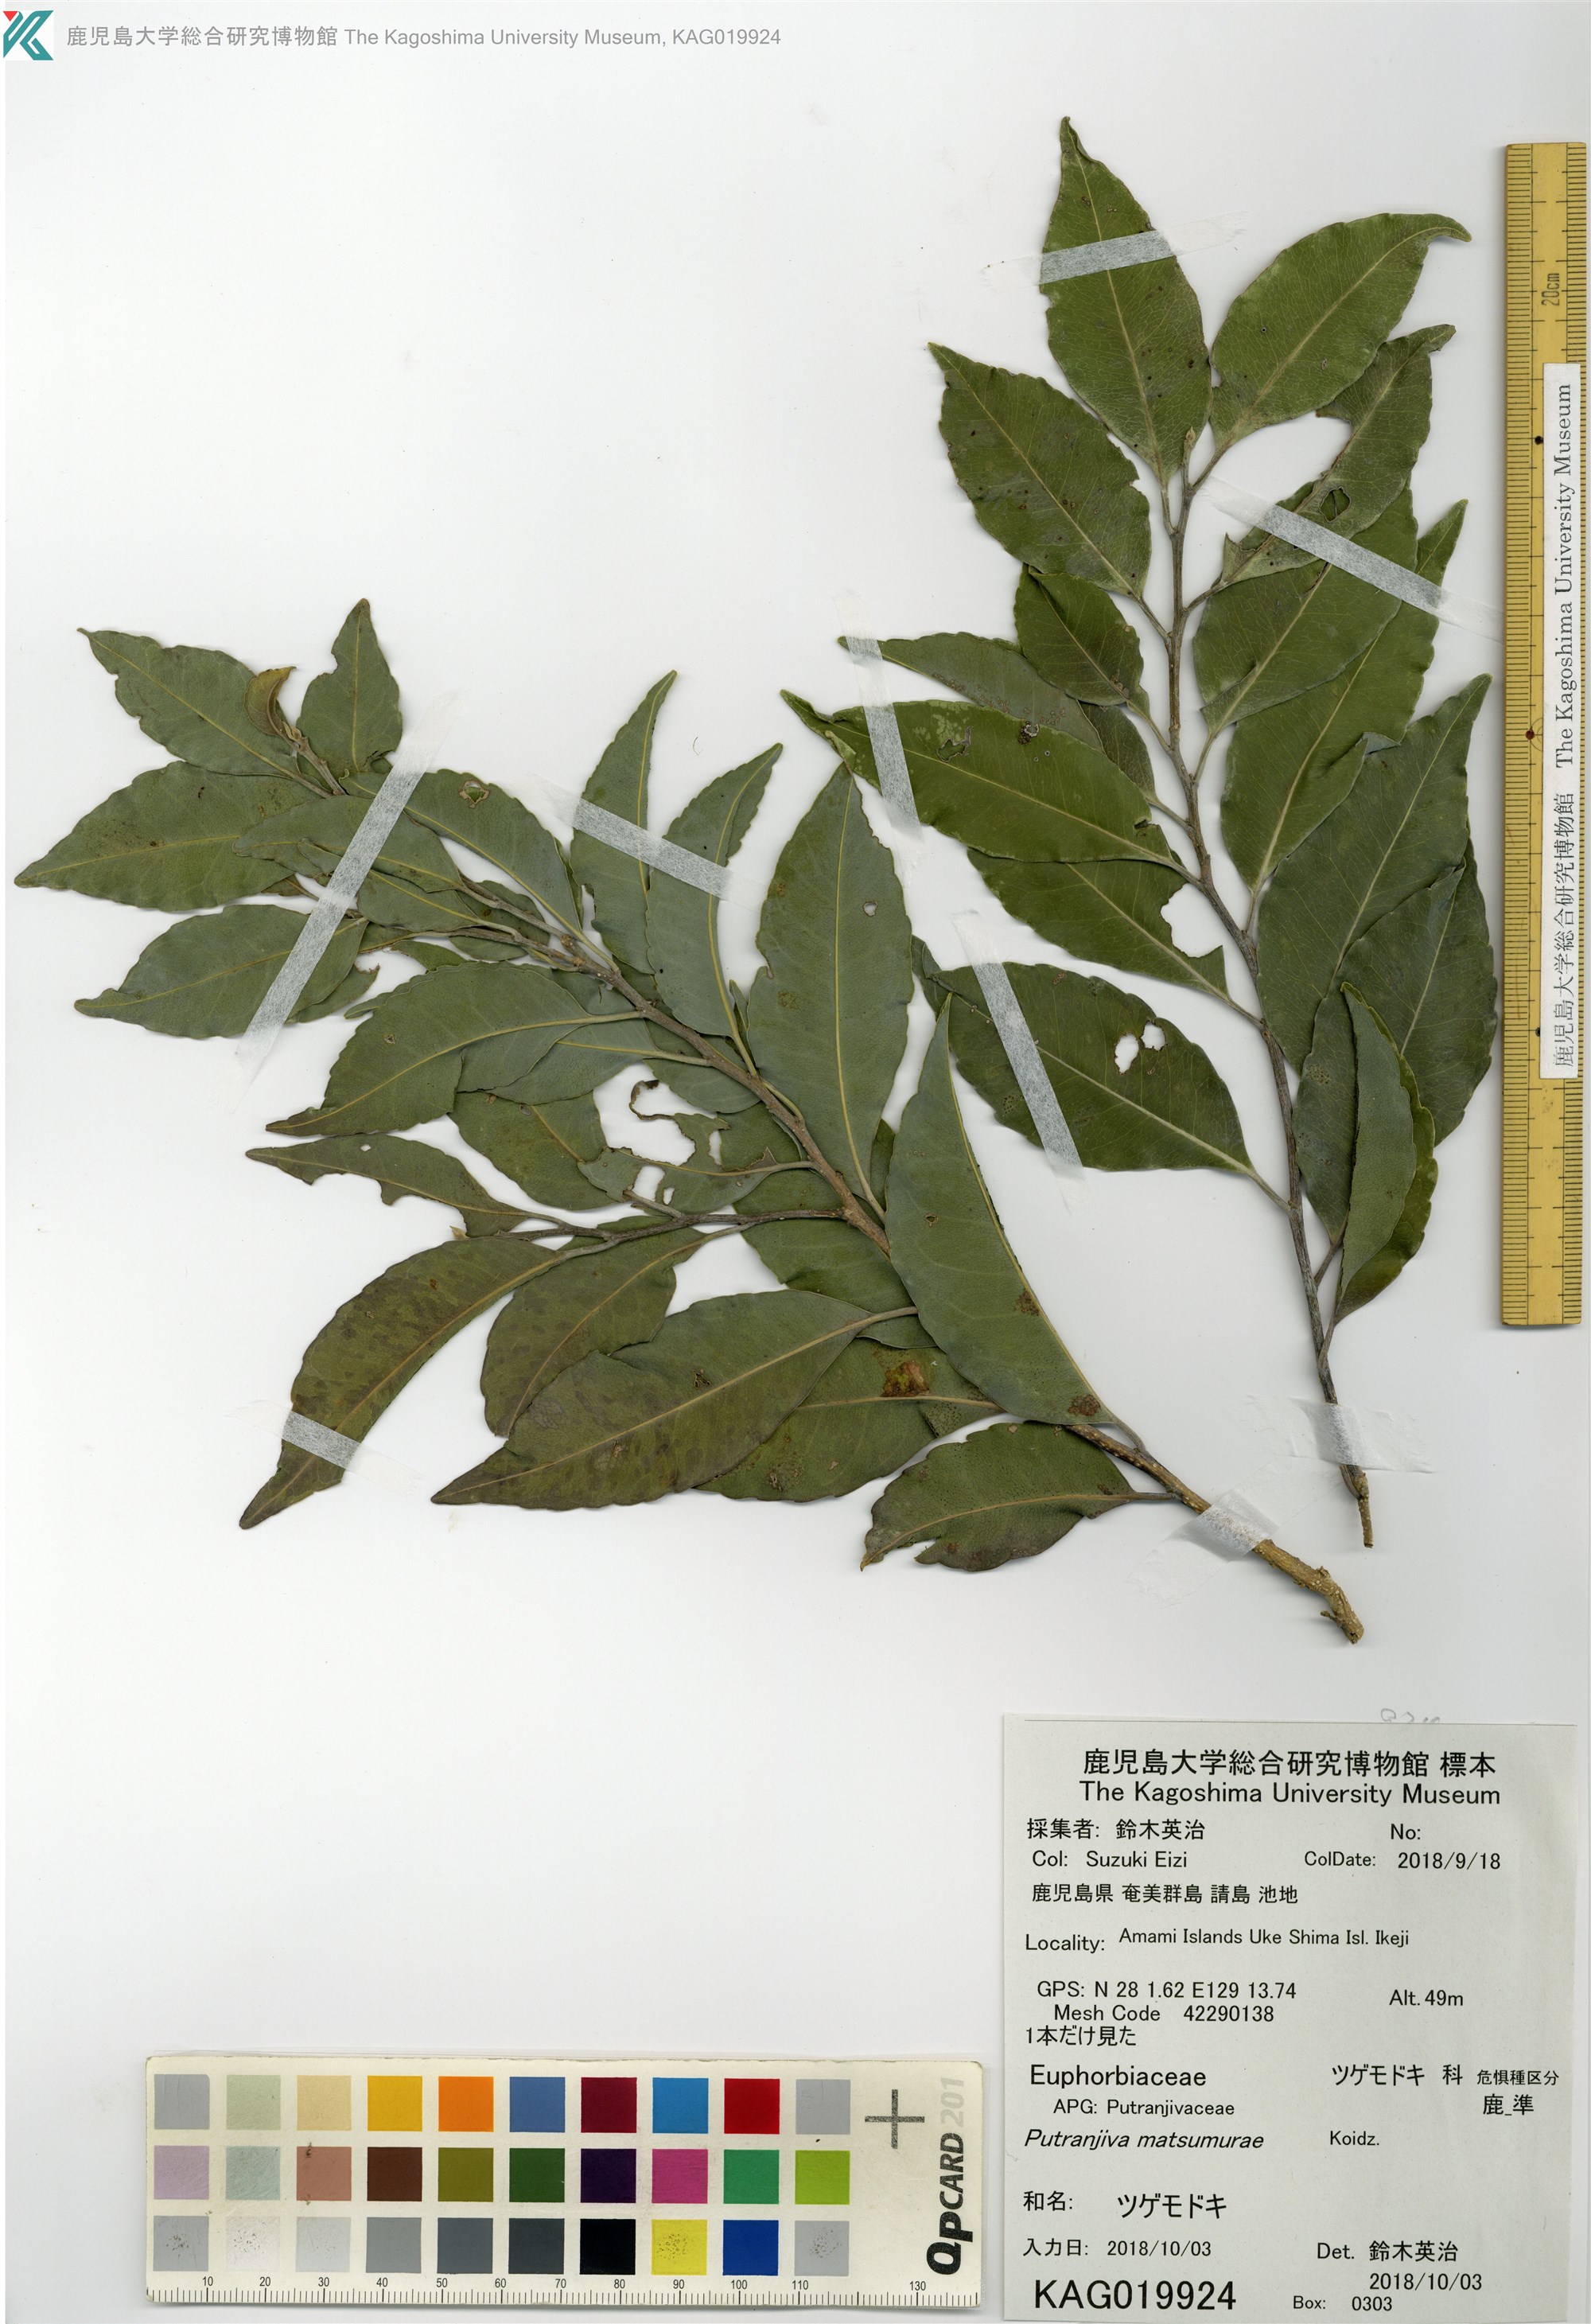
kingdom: Plantae
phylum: Tracheophyta
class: Magnoliopsida
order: Malpighiales
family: Putranjivaceae
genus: Putranjiva
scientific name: Putranjiva matsumurae
